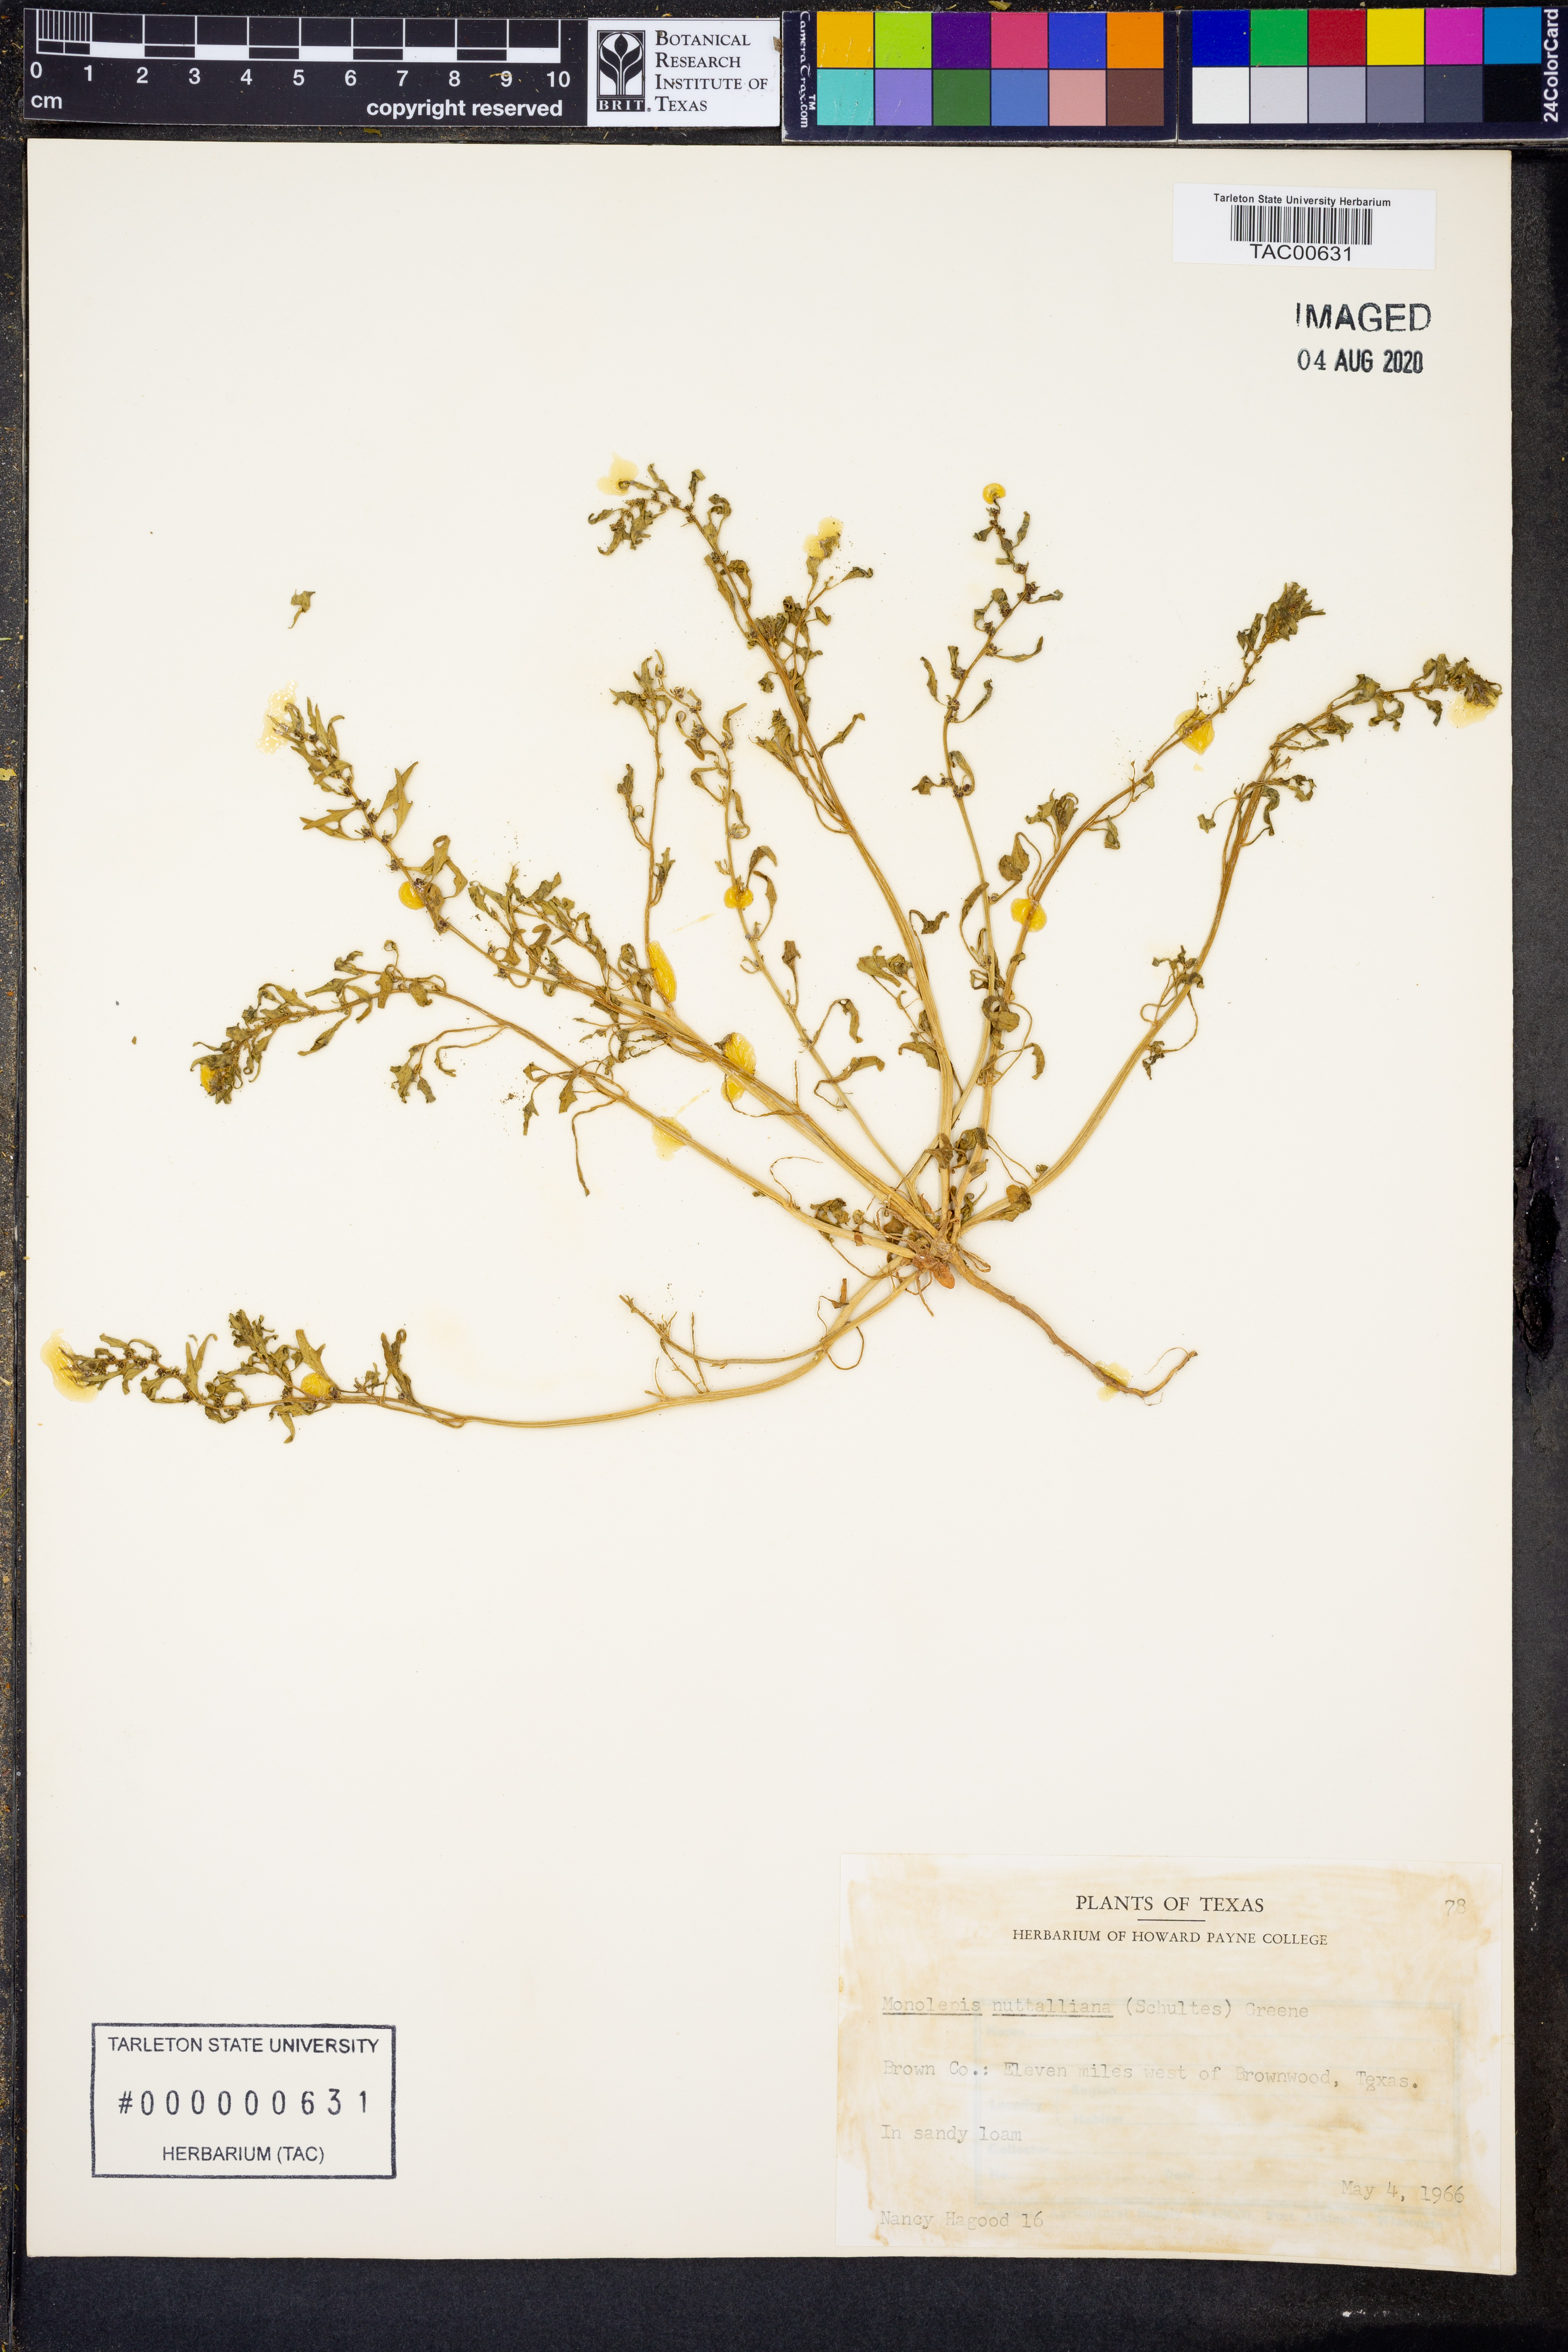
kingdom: Plantae
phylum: Tracheophyta
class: Magnoliopsida
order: Caryophyllales
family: Amaranthaceae
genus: Blitum
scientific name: Blitum nuttallianum
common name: Poverty-weed
